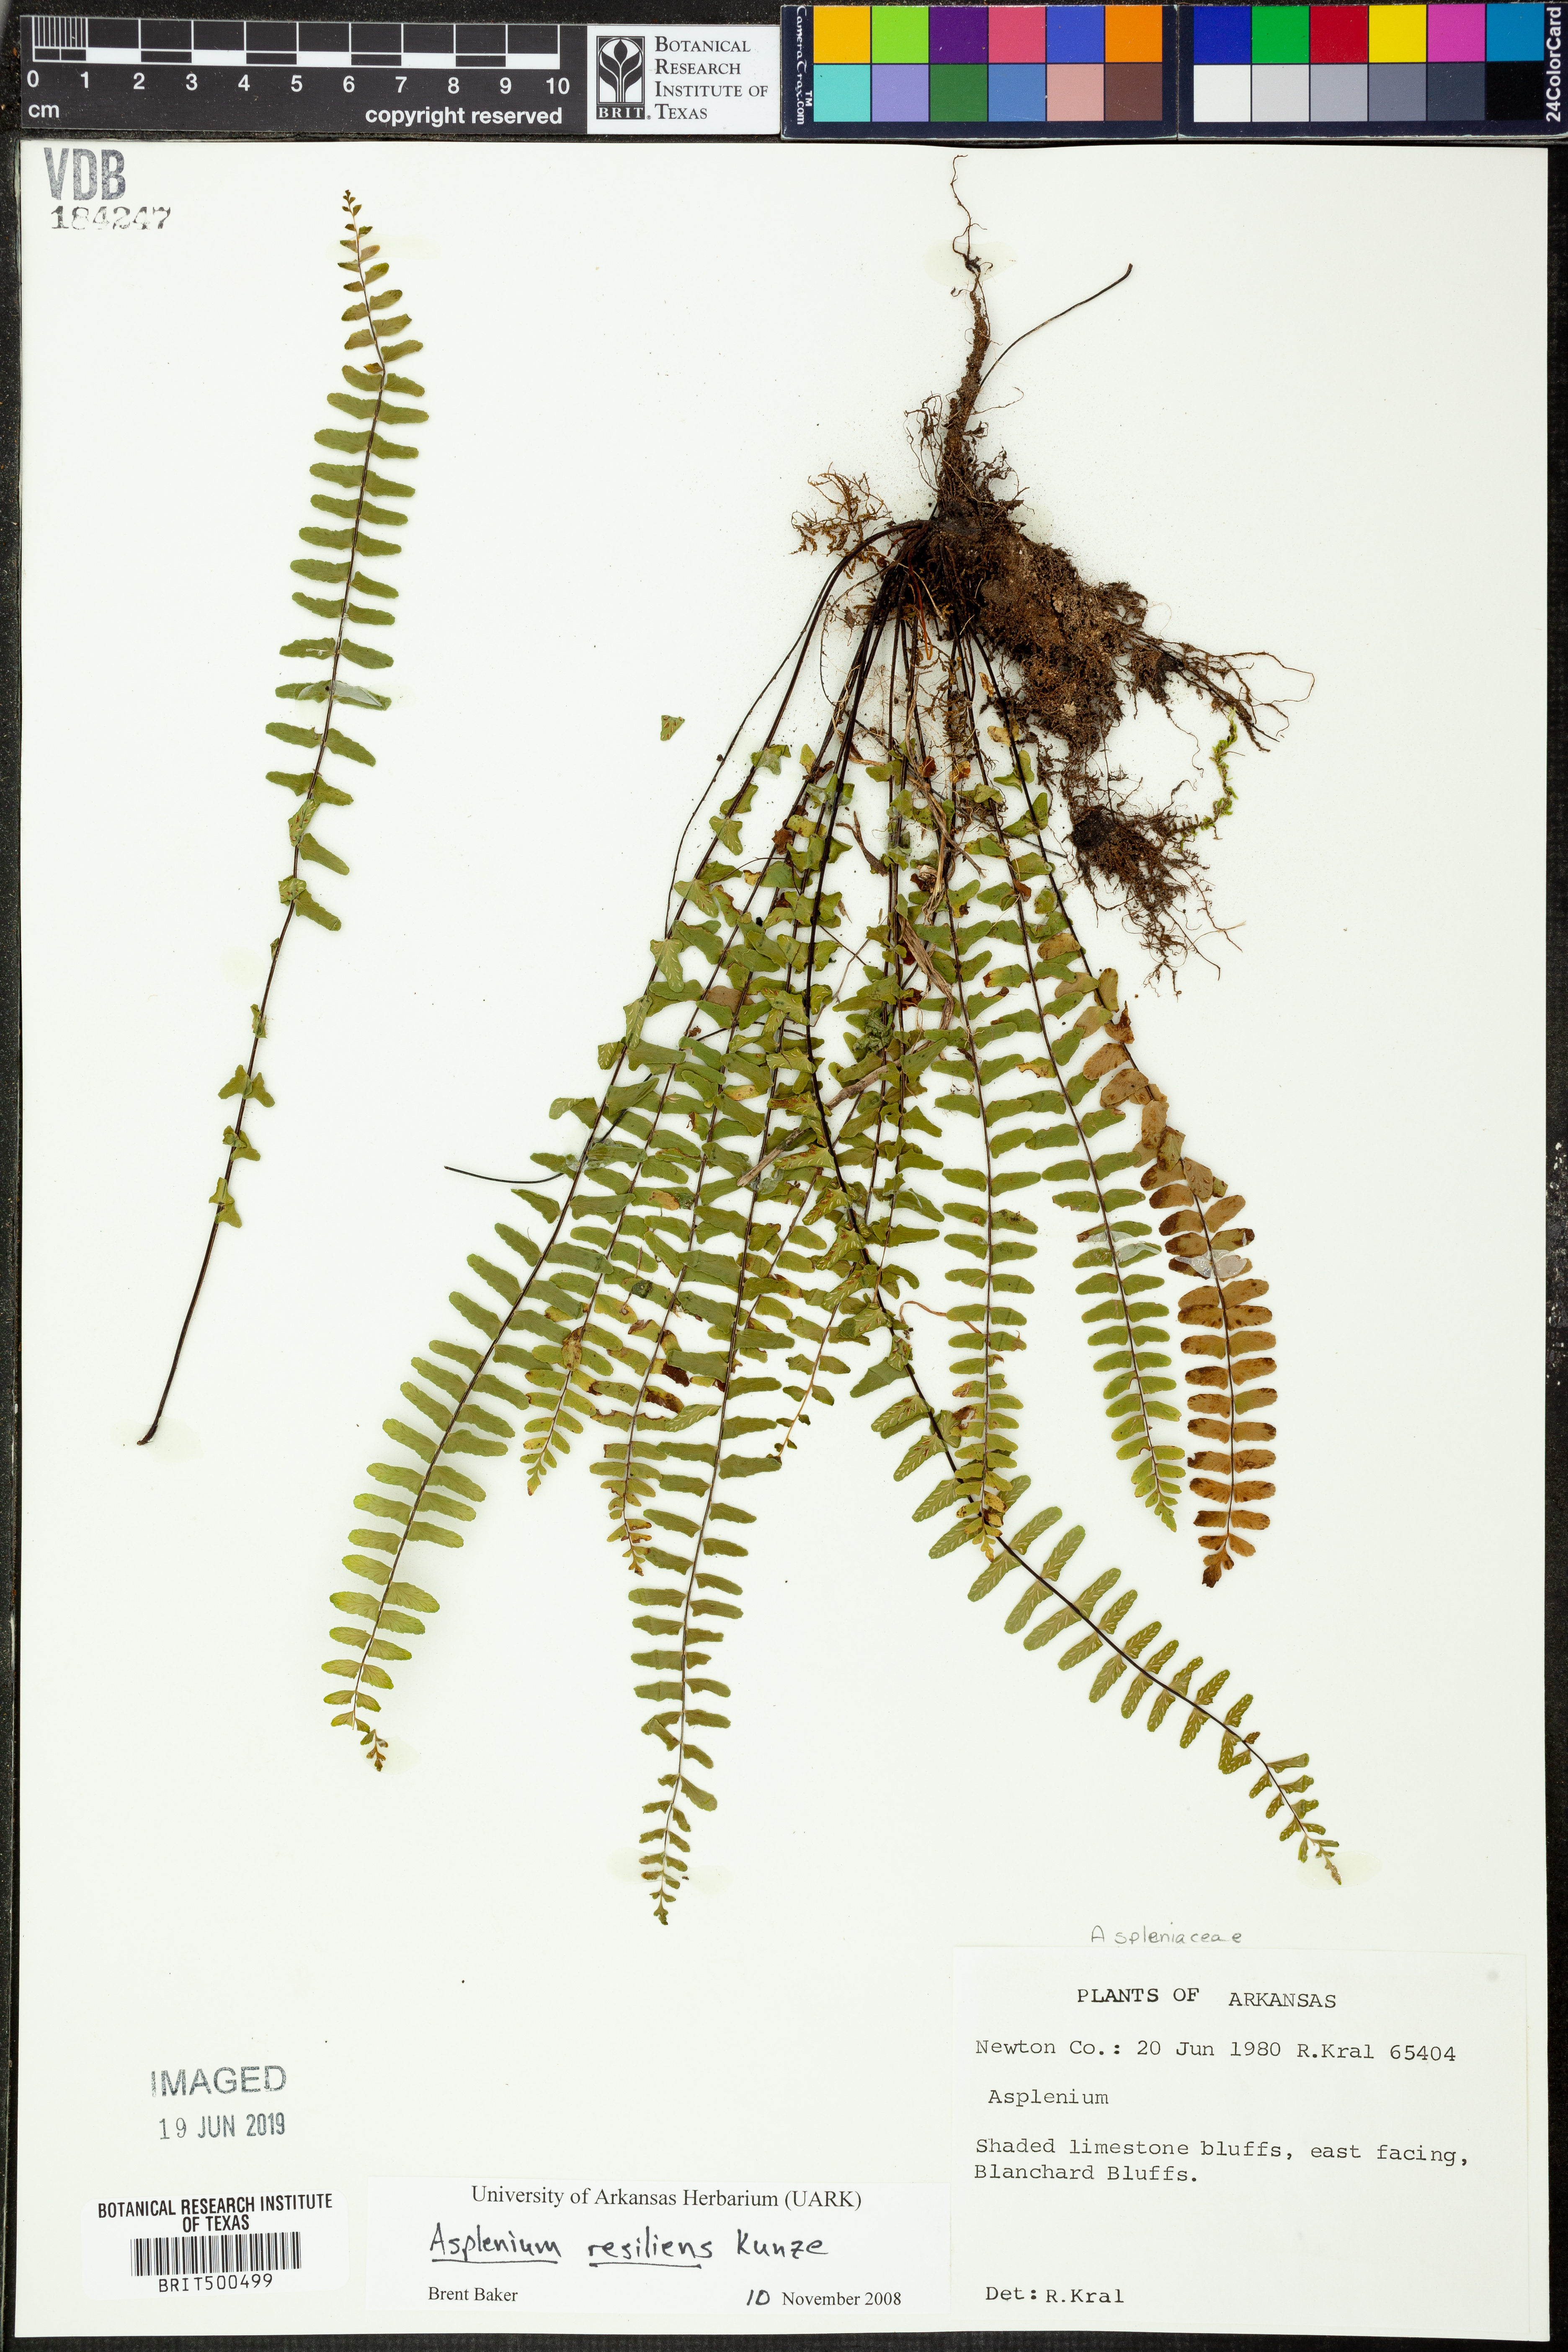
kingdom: Plantae
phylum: Tracheophyta
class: Polypodiopsida
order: Polypodiales
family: Aspleniaceae
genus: Asplenium
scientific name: Asplenium resiliens
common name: Blackstem spleenwort
